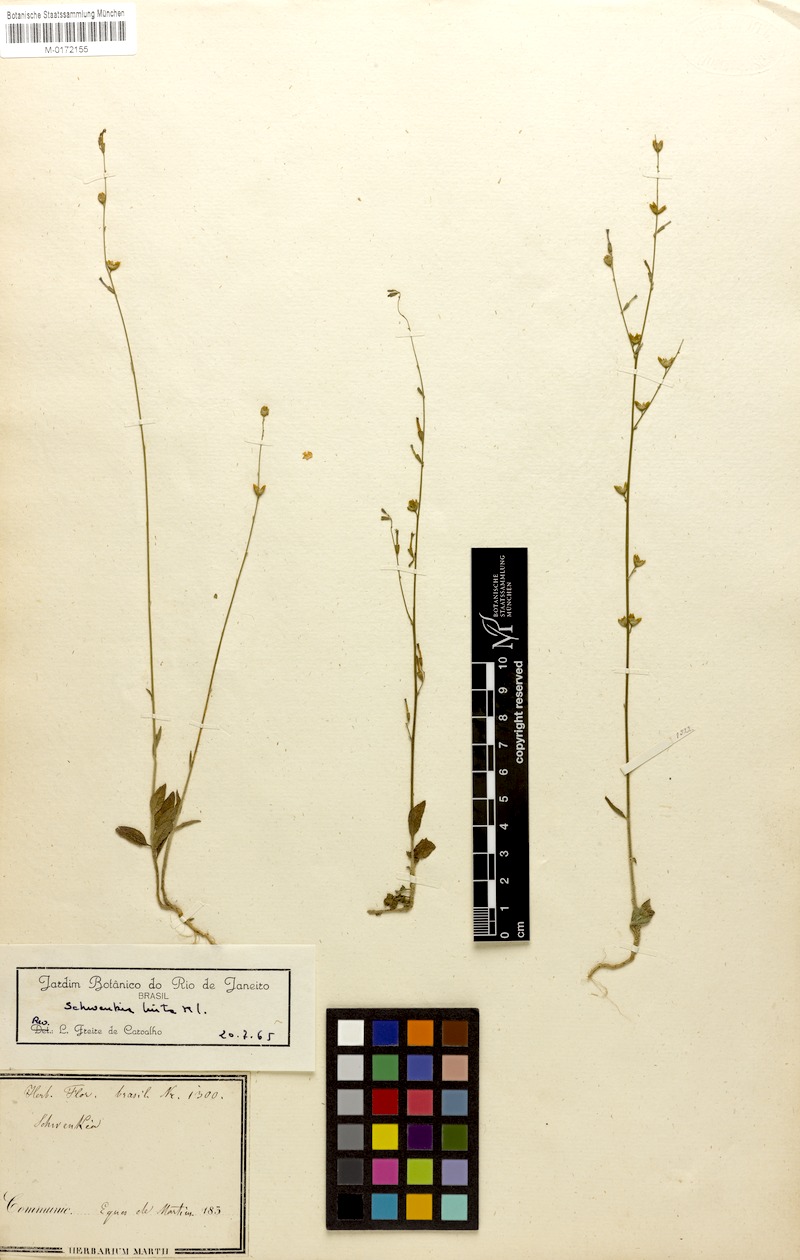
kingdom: Plantae
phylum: Tracheophyta
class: Magnoliopsida
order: Solanales
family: Solanaceae
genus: Schwenckia
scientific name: Schwenckia americana
